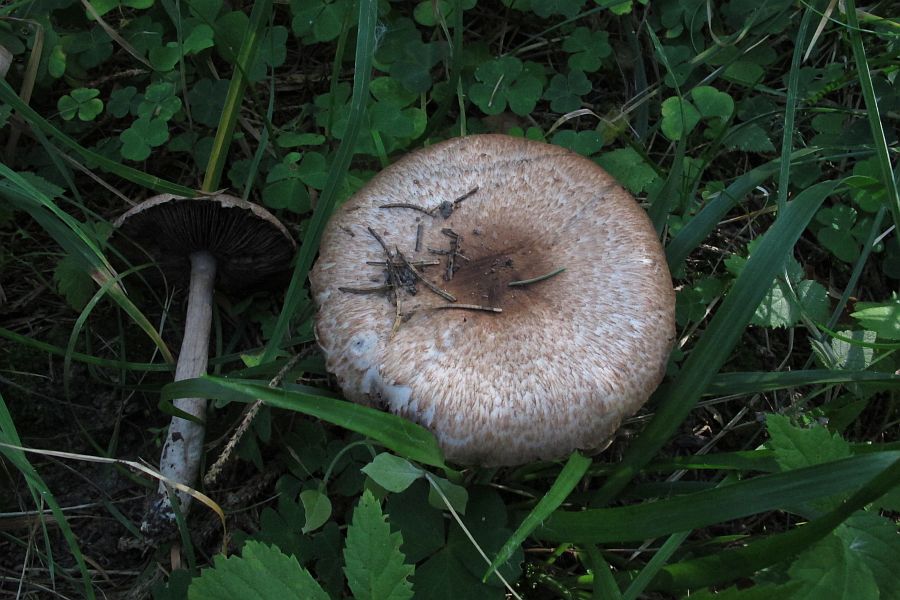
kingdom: Fungi
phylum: Basidiomycota
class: Agaricomycetes
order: Agaricales
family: Agaricaceae
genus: Agaricus
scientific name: Agaricus impudicus
